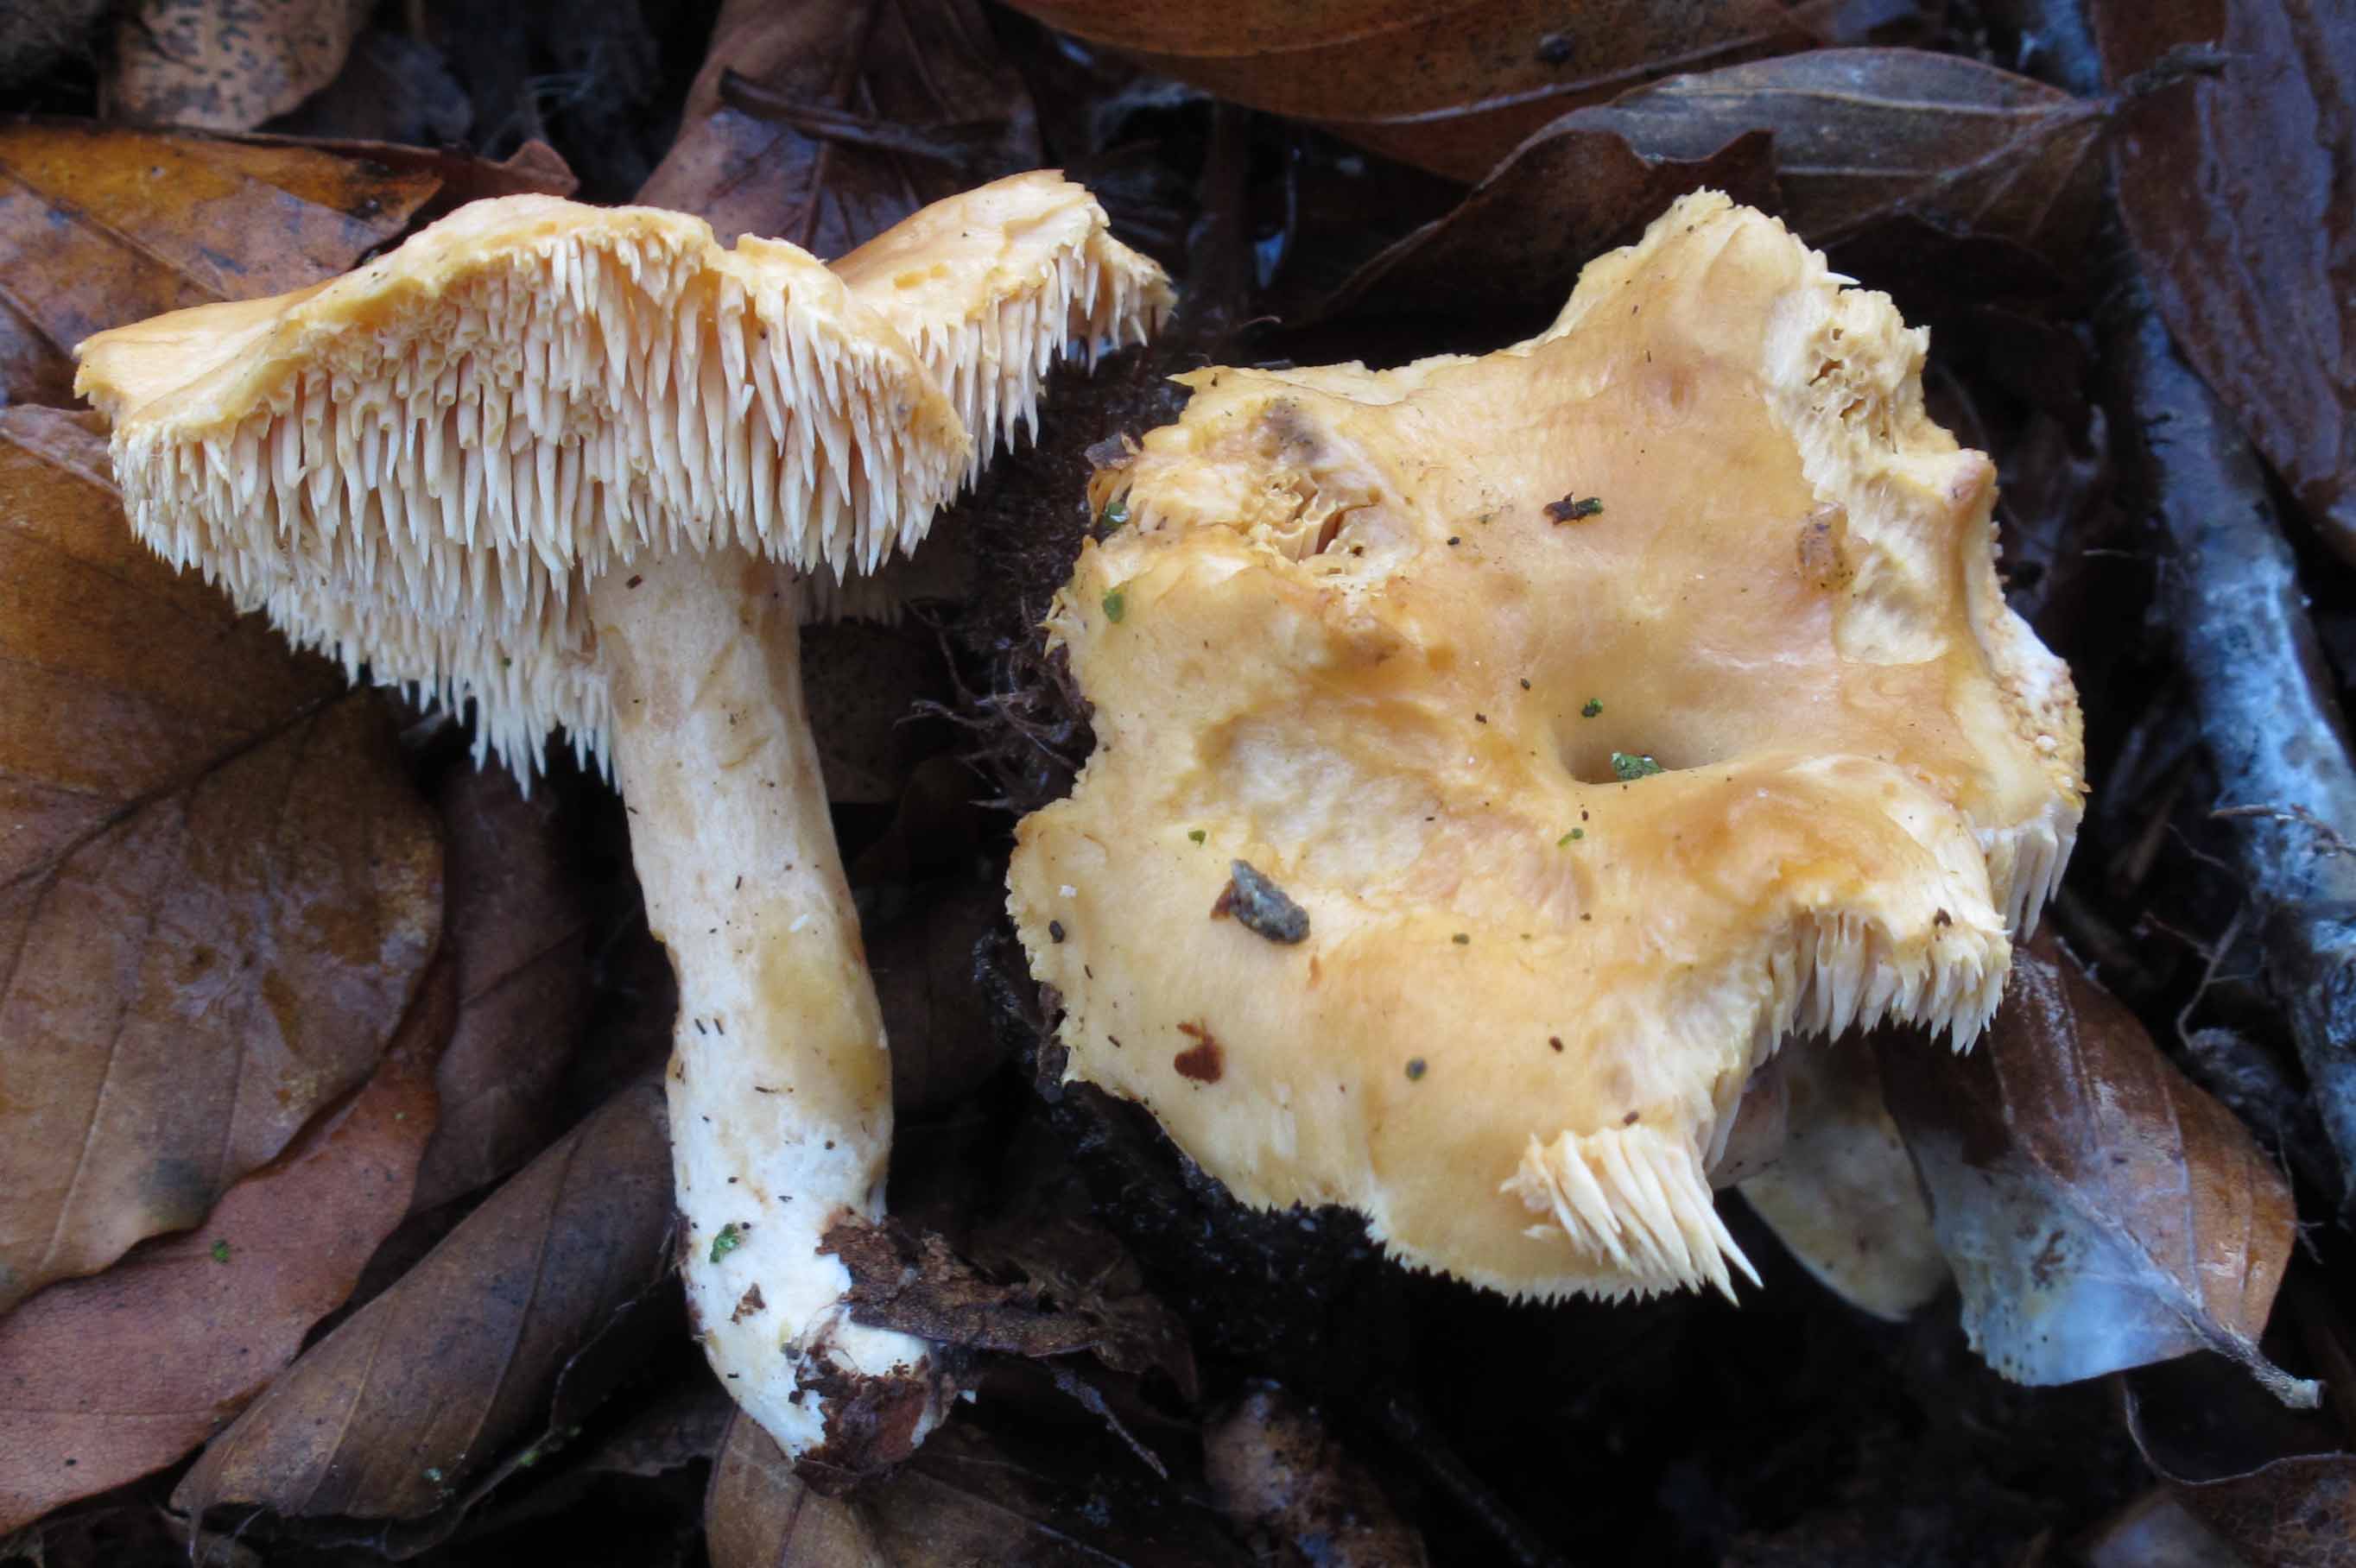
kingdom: Fungi
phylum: Basidiomycota
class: Agaricomycetes
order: Cantharellales
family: Hydnaceae
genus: Hydnum
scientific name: Hydnum umbilicatum
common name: navle-pigsvamp
